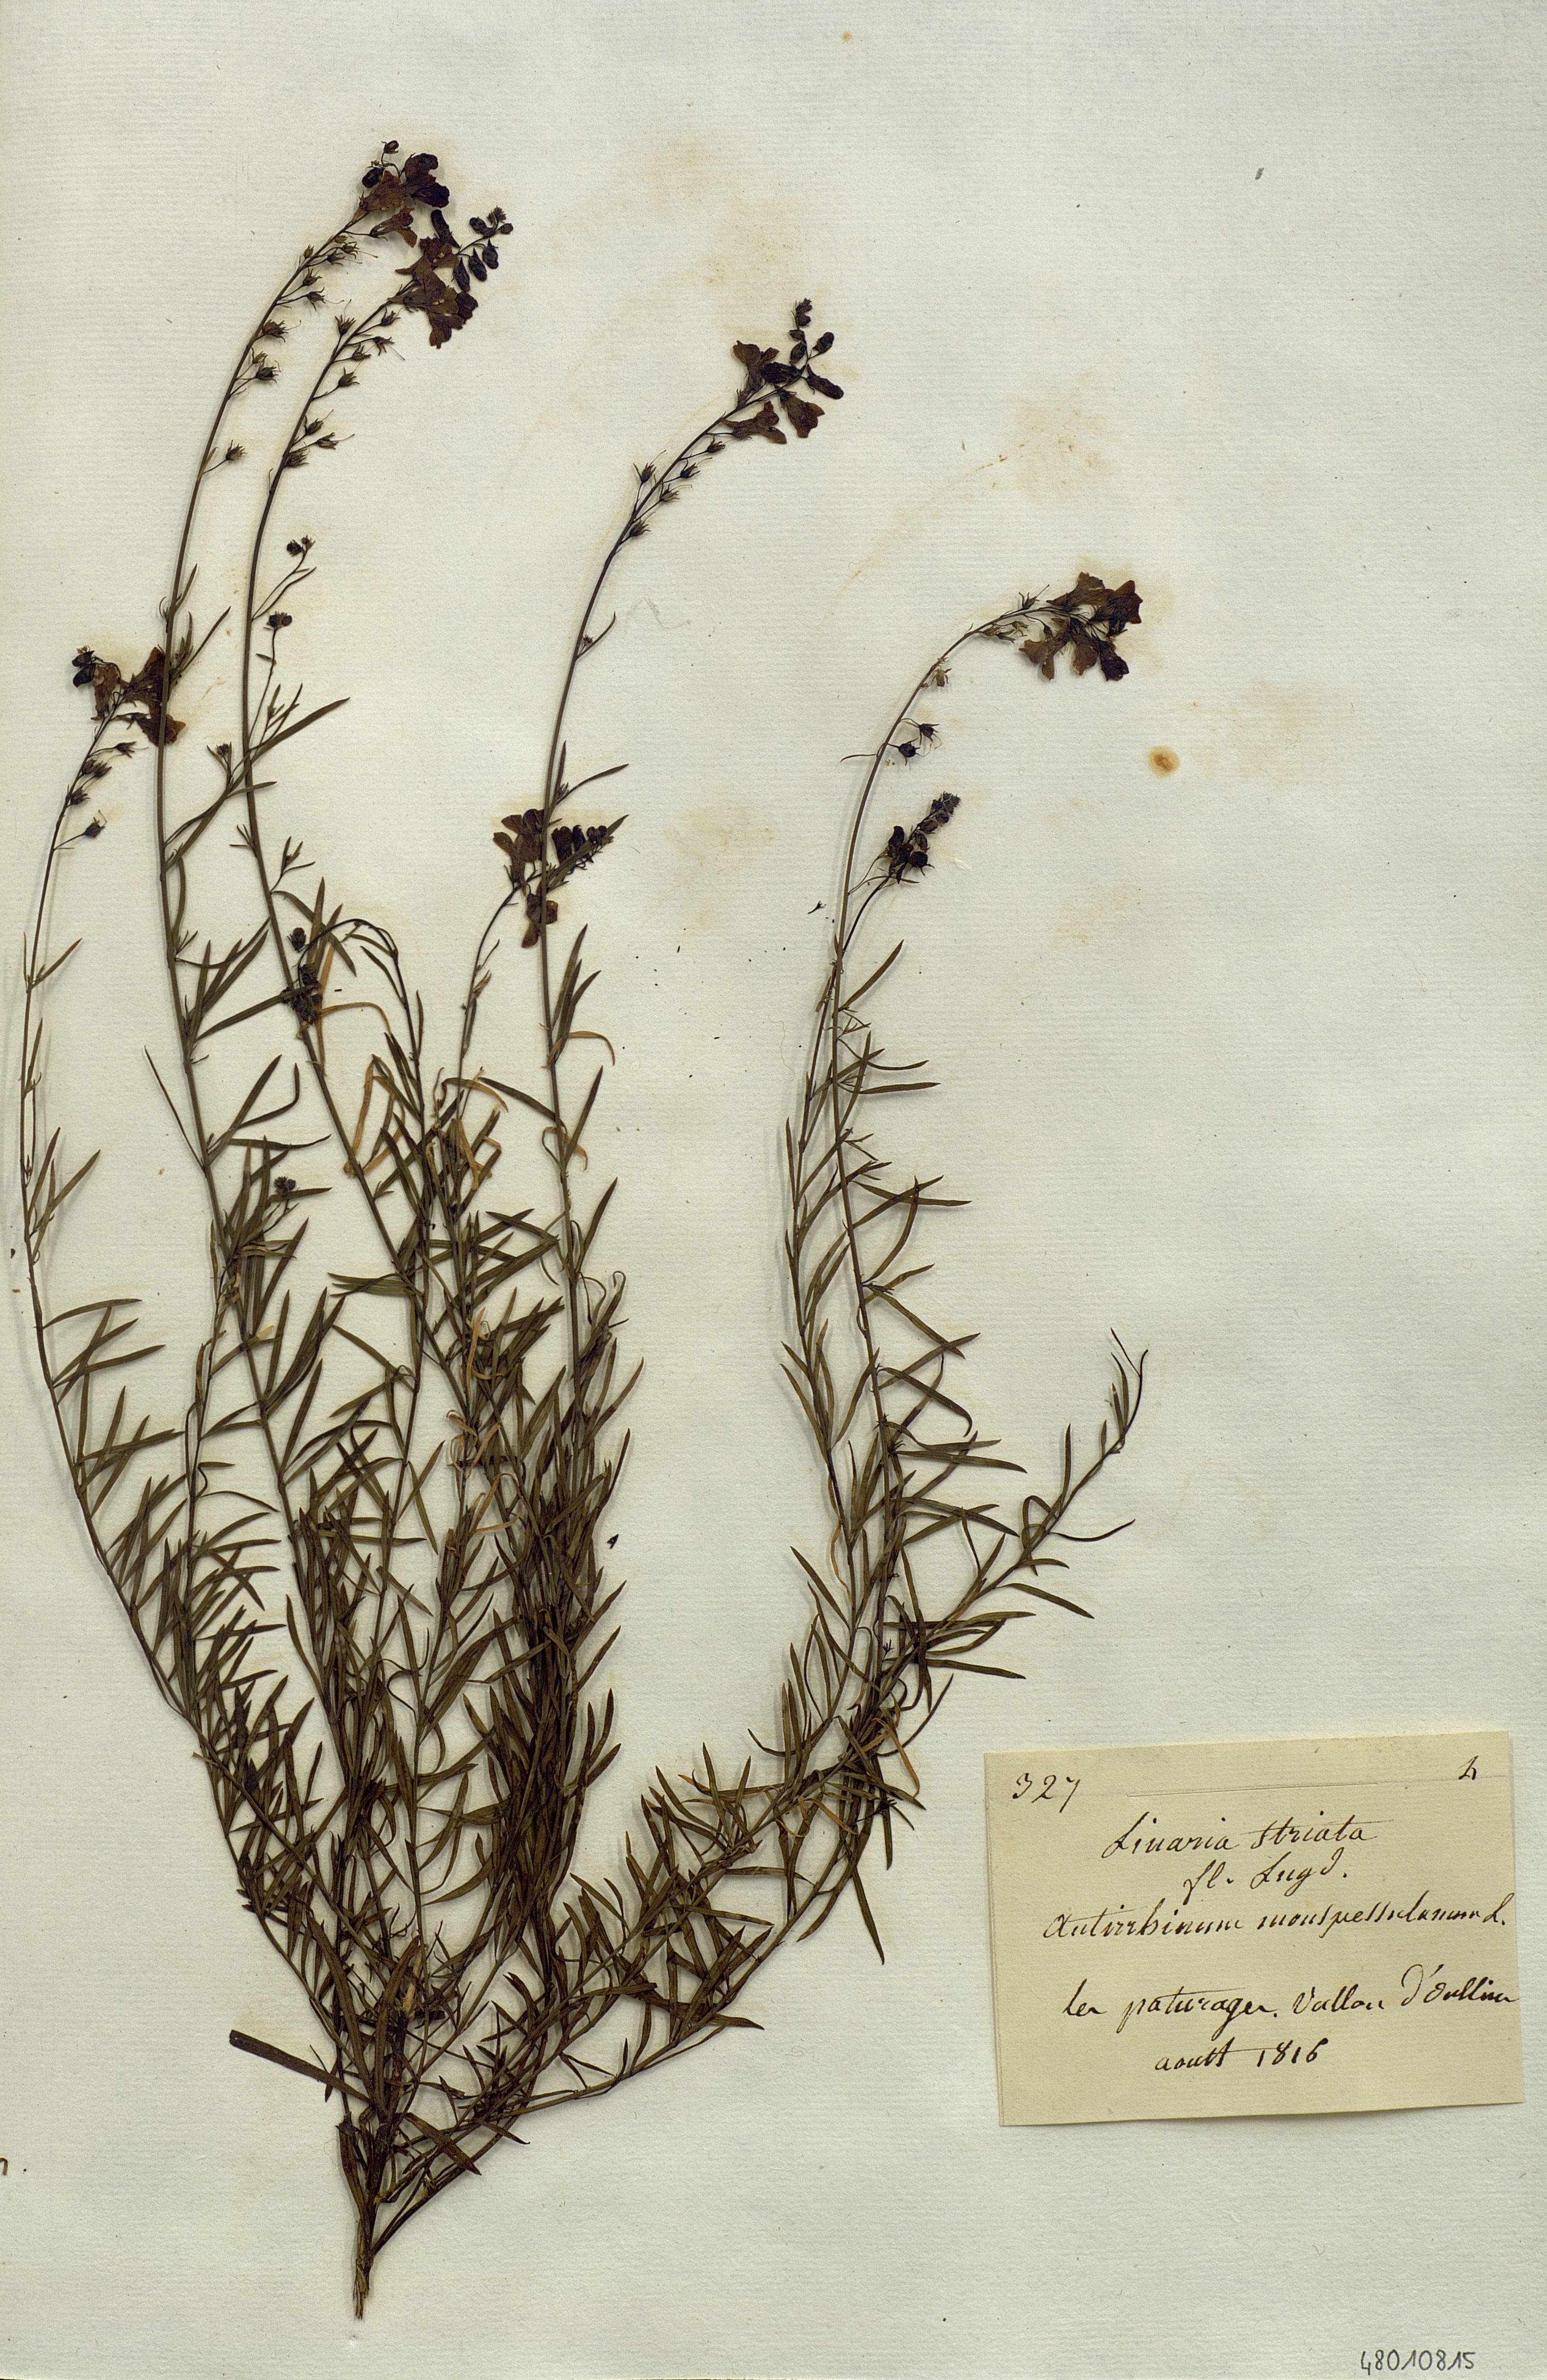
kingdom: Plantae
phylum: Tracheophyta
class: Magnoliopsida
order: Lamiales
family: Plantaginaceae
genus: Linaria
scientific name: Linaria
